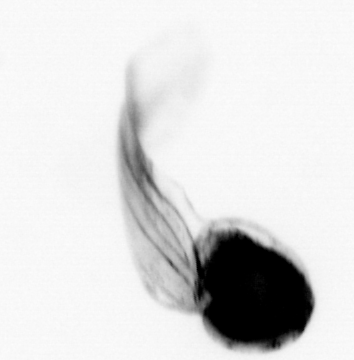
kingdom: Animalia
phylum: Chordata
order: Copelata
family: Fritillariidae
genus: Appendicularia
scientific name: Appendicularia
